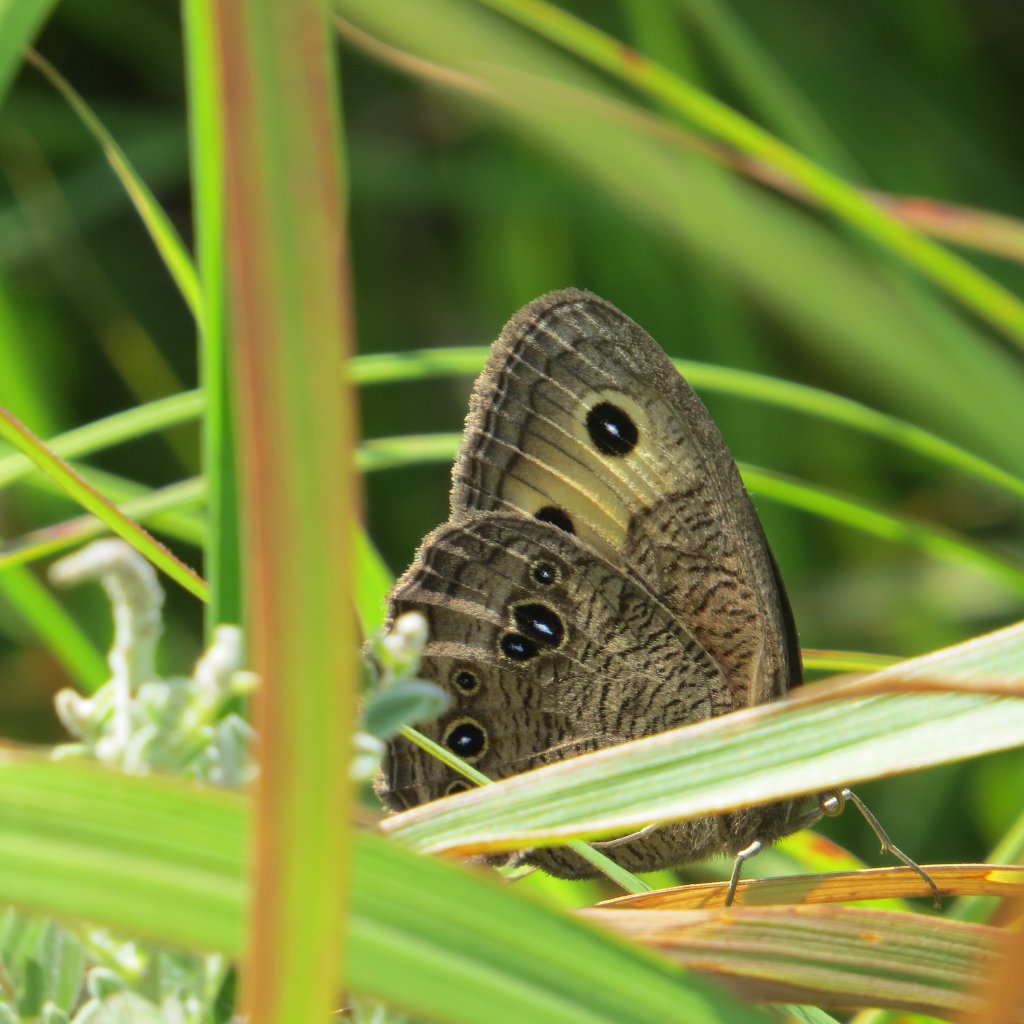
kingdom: Animalia
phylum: Arthropoda
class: Insecta
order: Lepidoptera
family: Nymphalidae
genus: Cercyonis
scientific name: Cercyonis pegala
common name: Common Wood-Nymph
